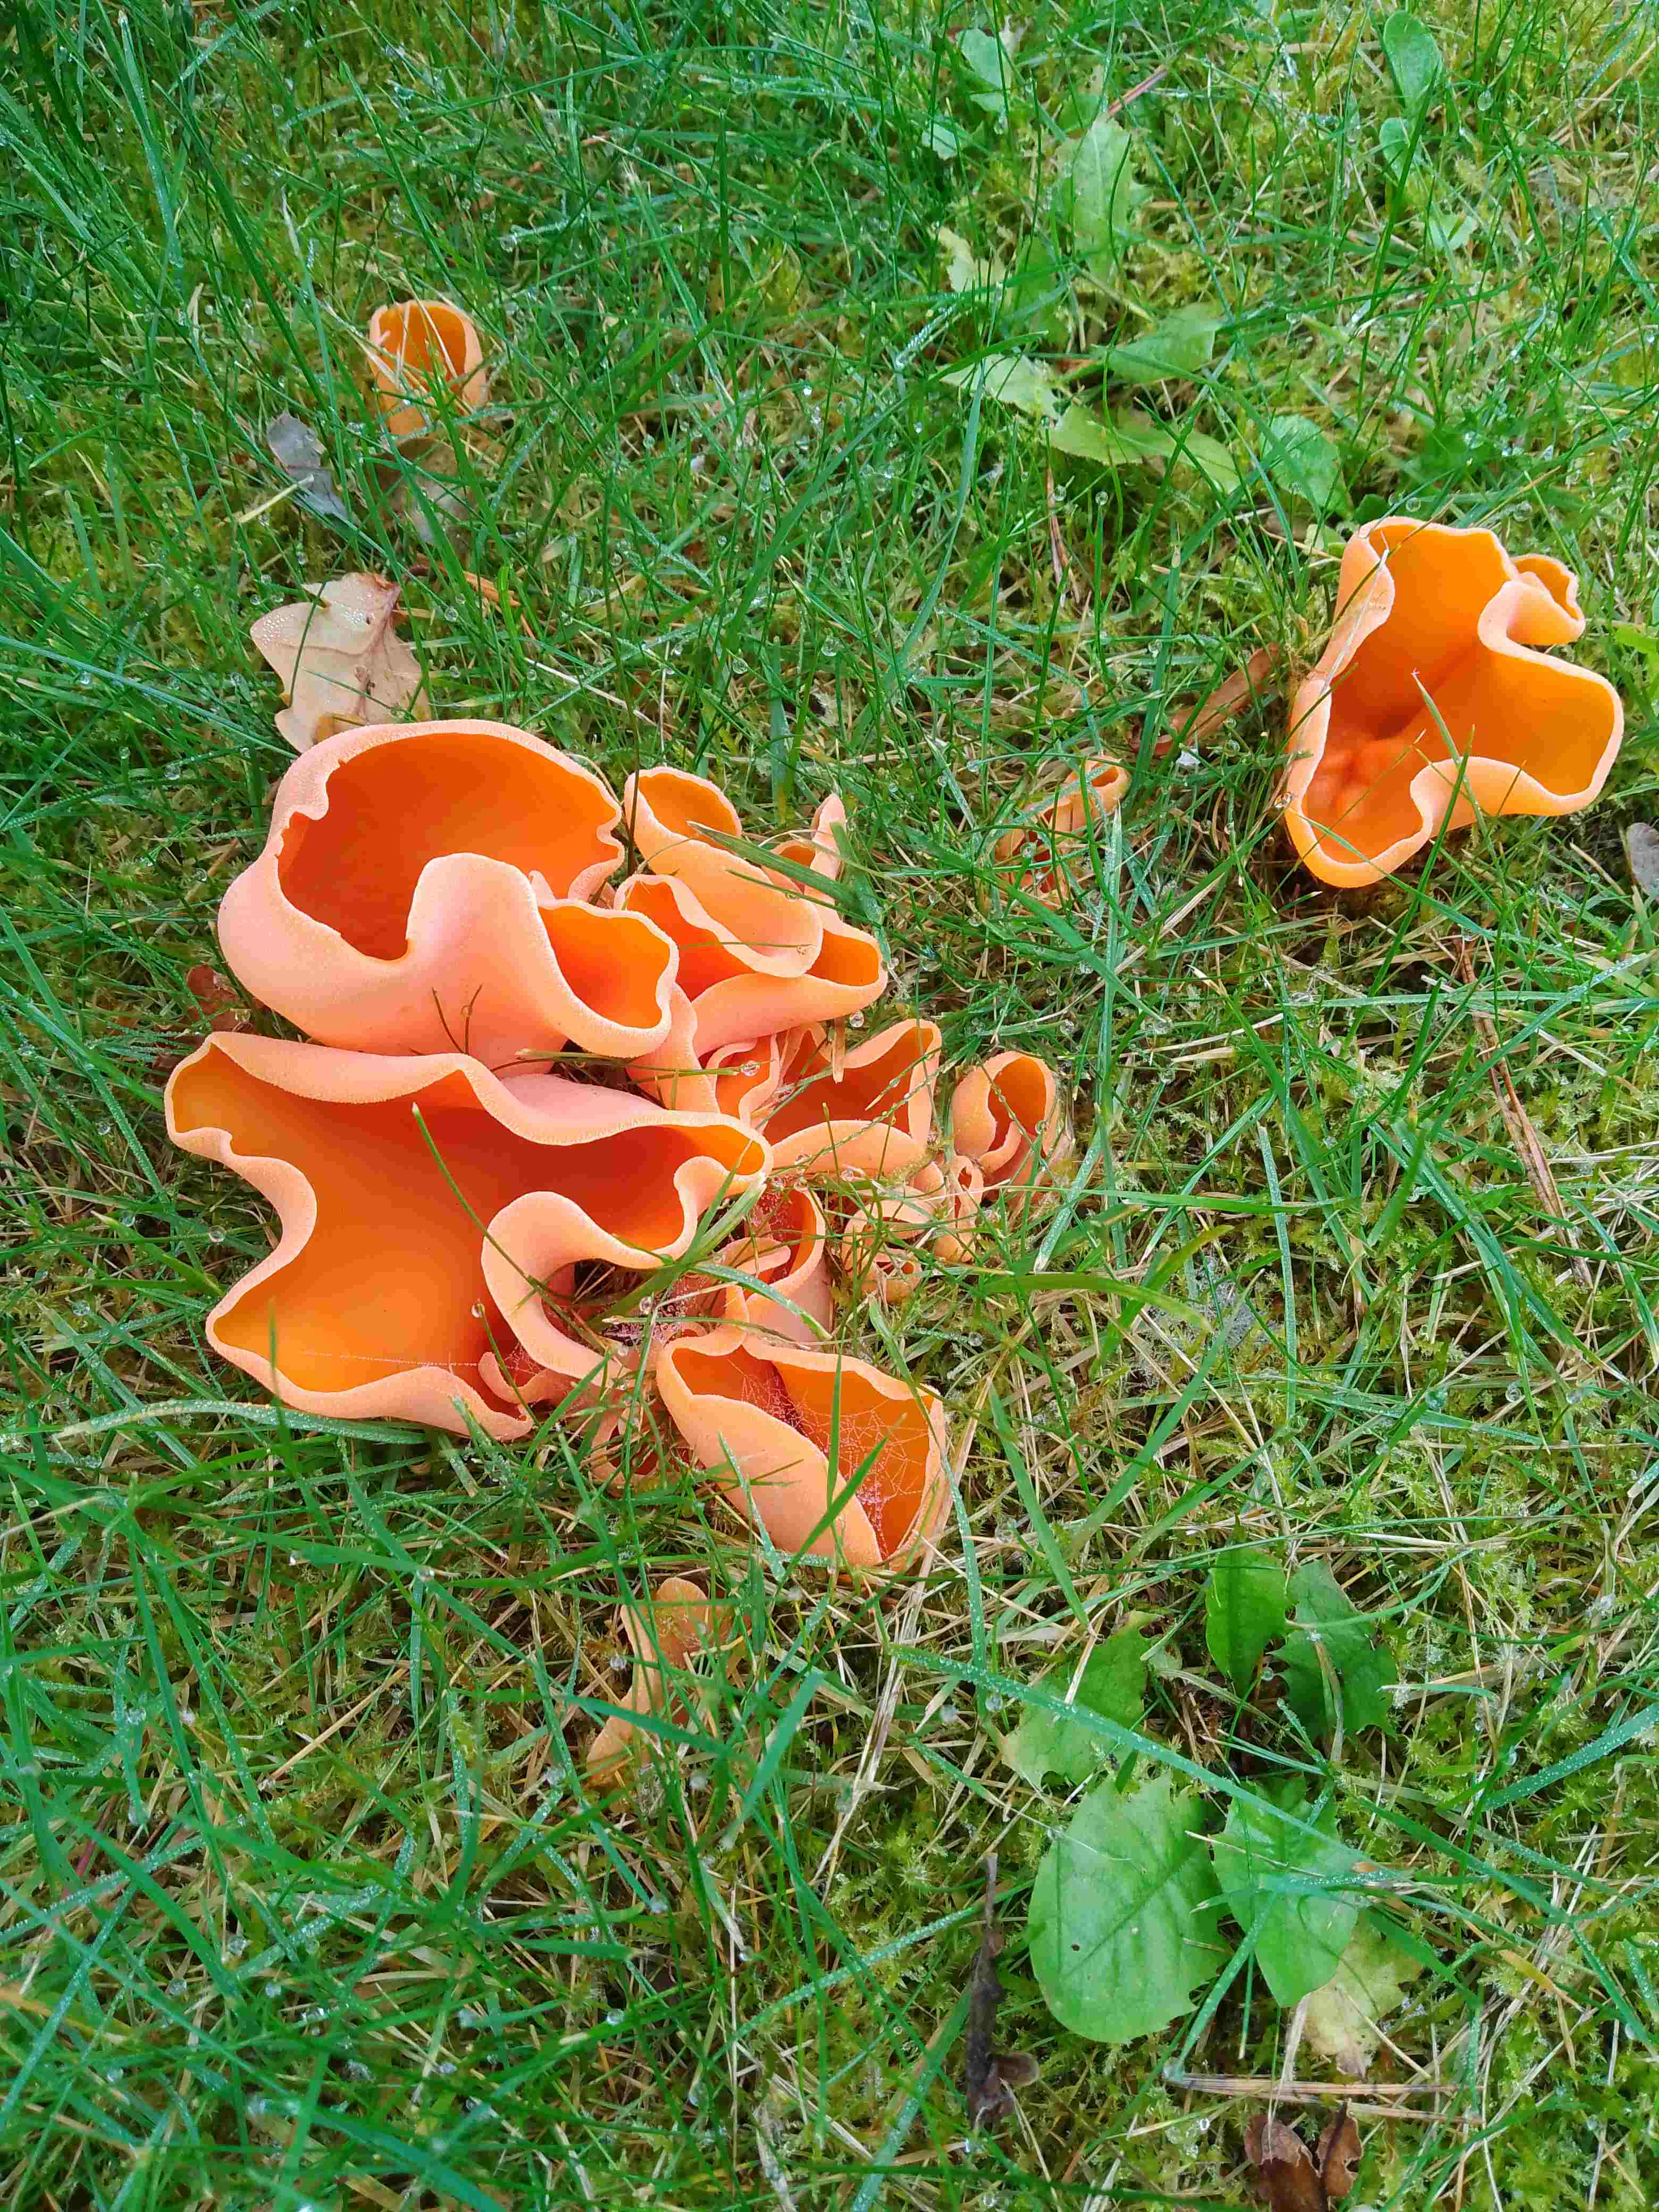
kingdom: Fungi
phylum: Ascomycota
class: Pezizomycetes
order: Pezizales
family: Pyronemataceae
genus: Aleuria
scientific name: Aleuria aurantia
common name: almindelig orangebæger
